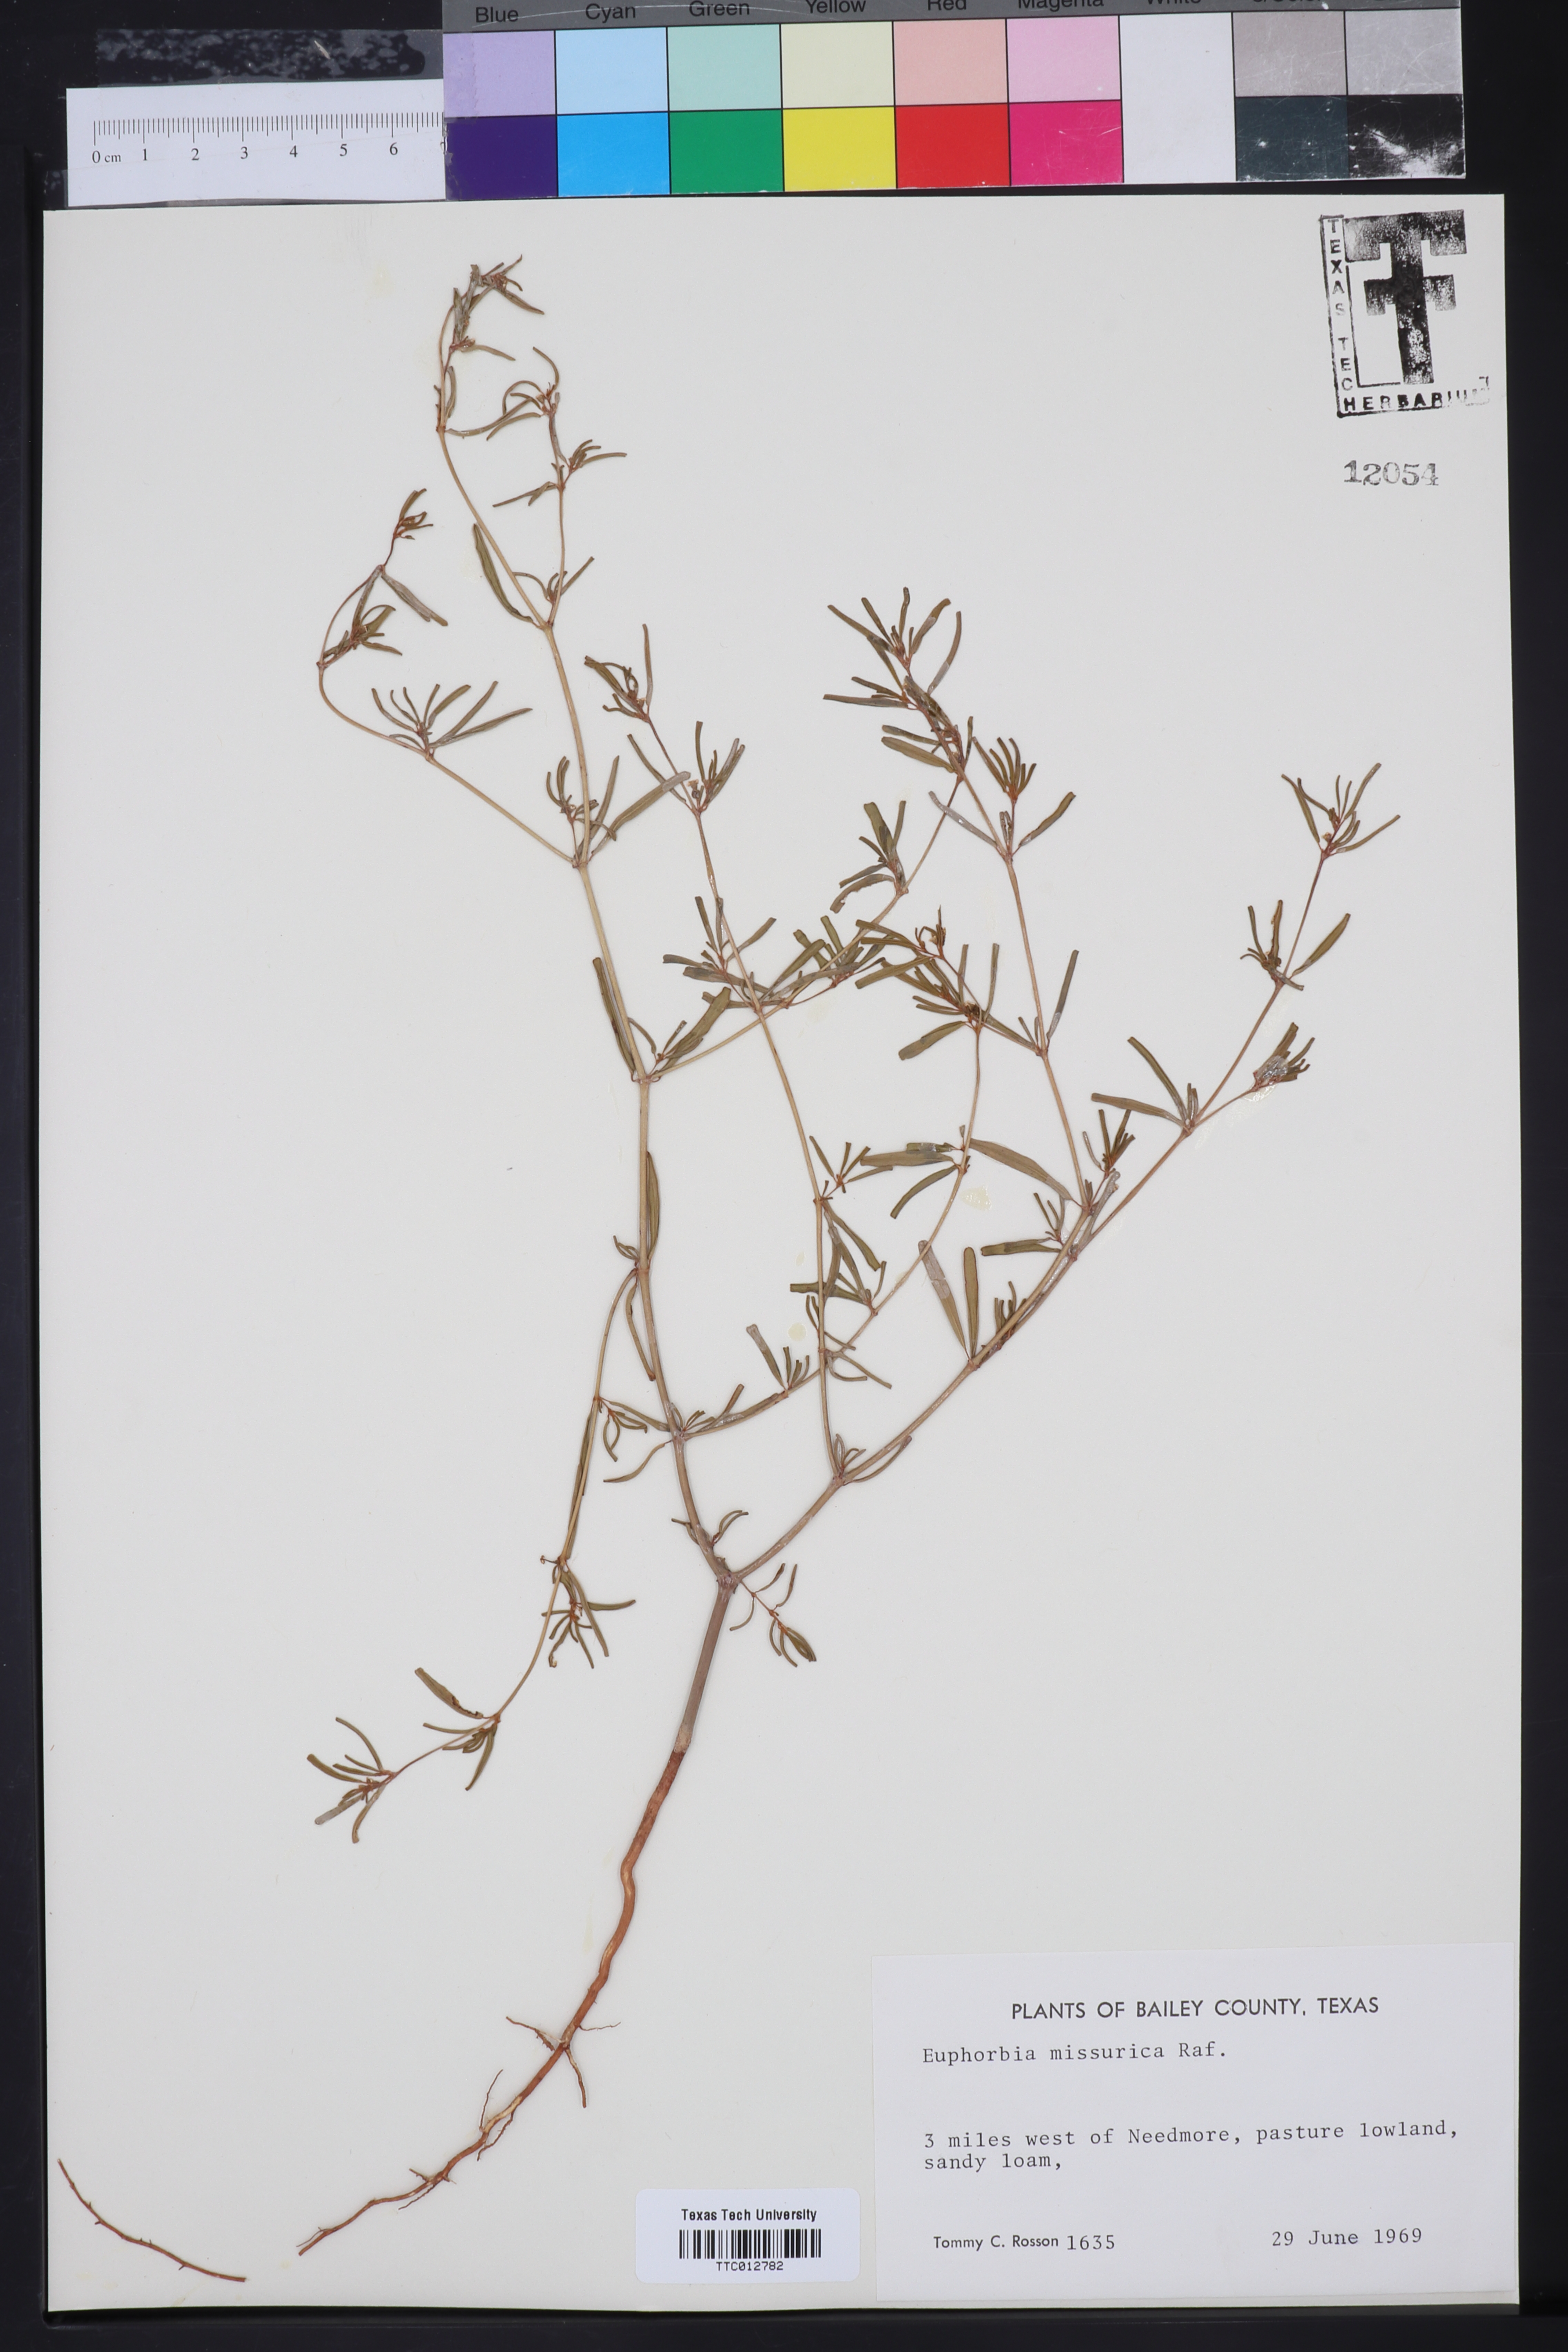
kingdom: Plantae
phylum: Tracheophyta
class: Magnoliopsida
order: Malpighiales
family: Euphorbiaceae
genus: Euphorbia
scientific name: Euphorbia missurica
